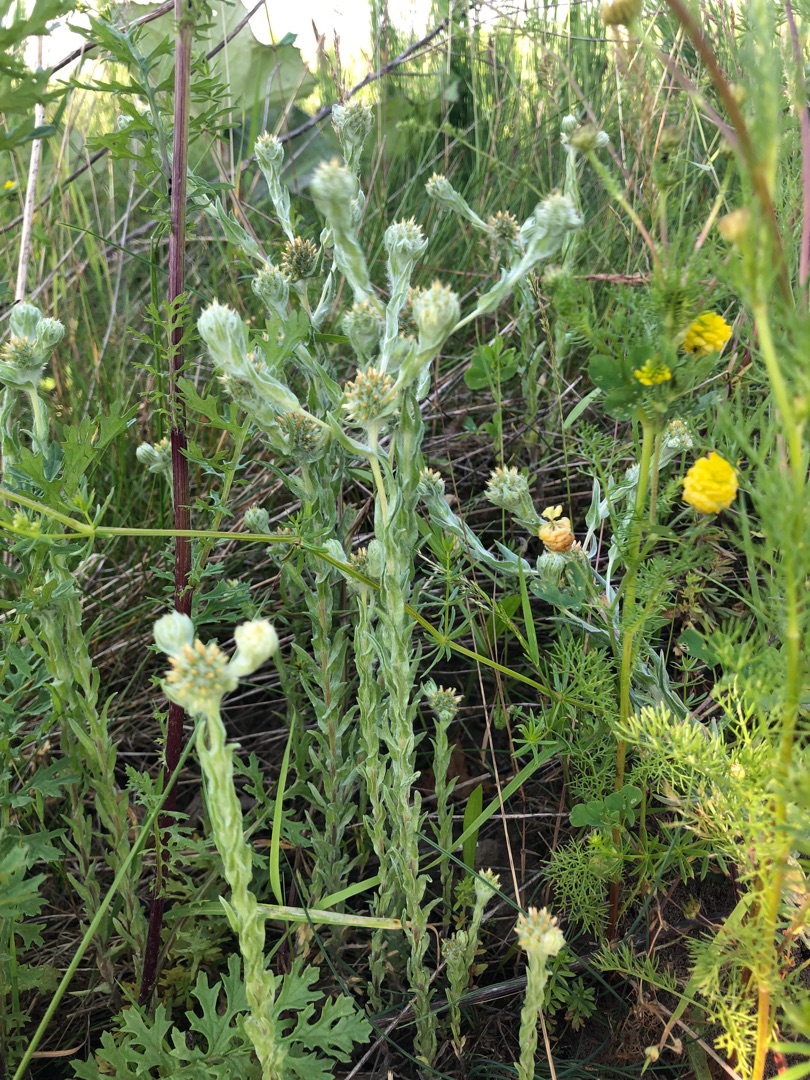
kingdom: Plantae
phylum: Tracheophyta
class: Magnoliopsida
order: Asterales
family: Asteraceae
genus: Filago
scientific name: Filago germanica
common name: Kugle-museurt
